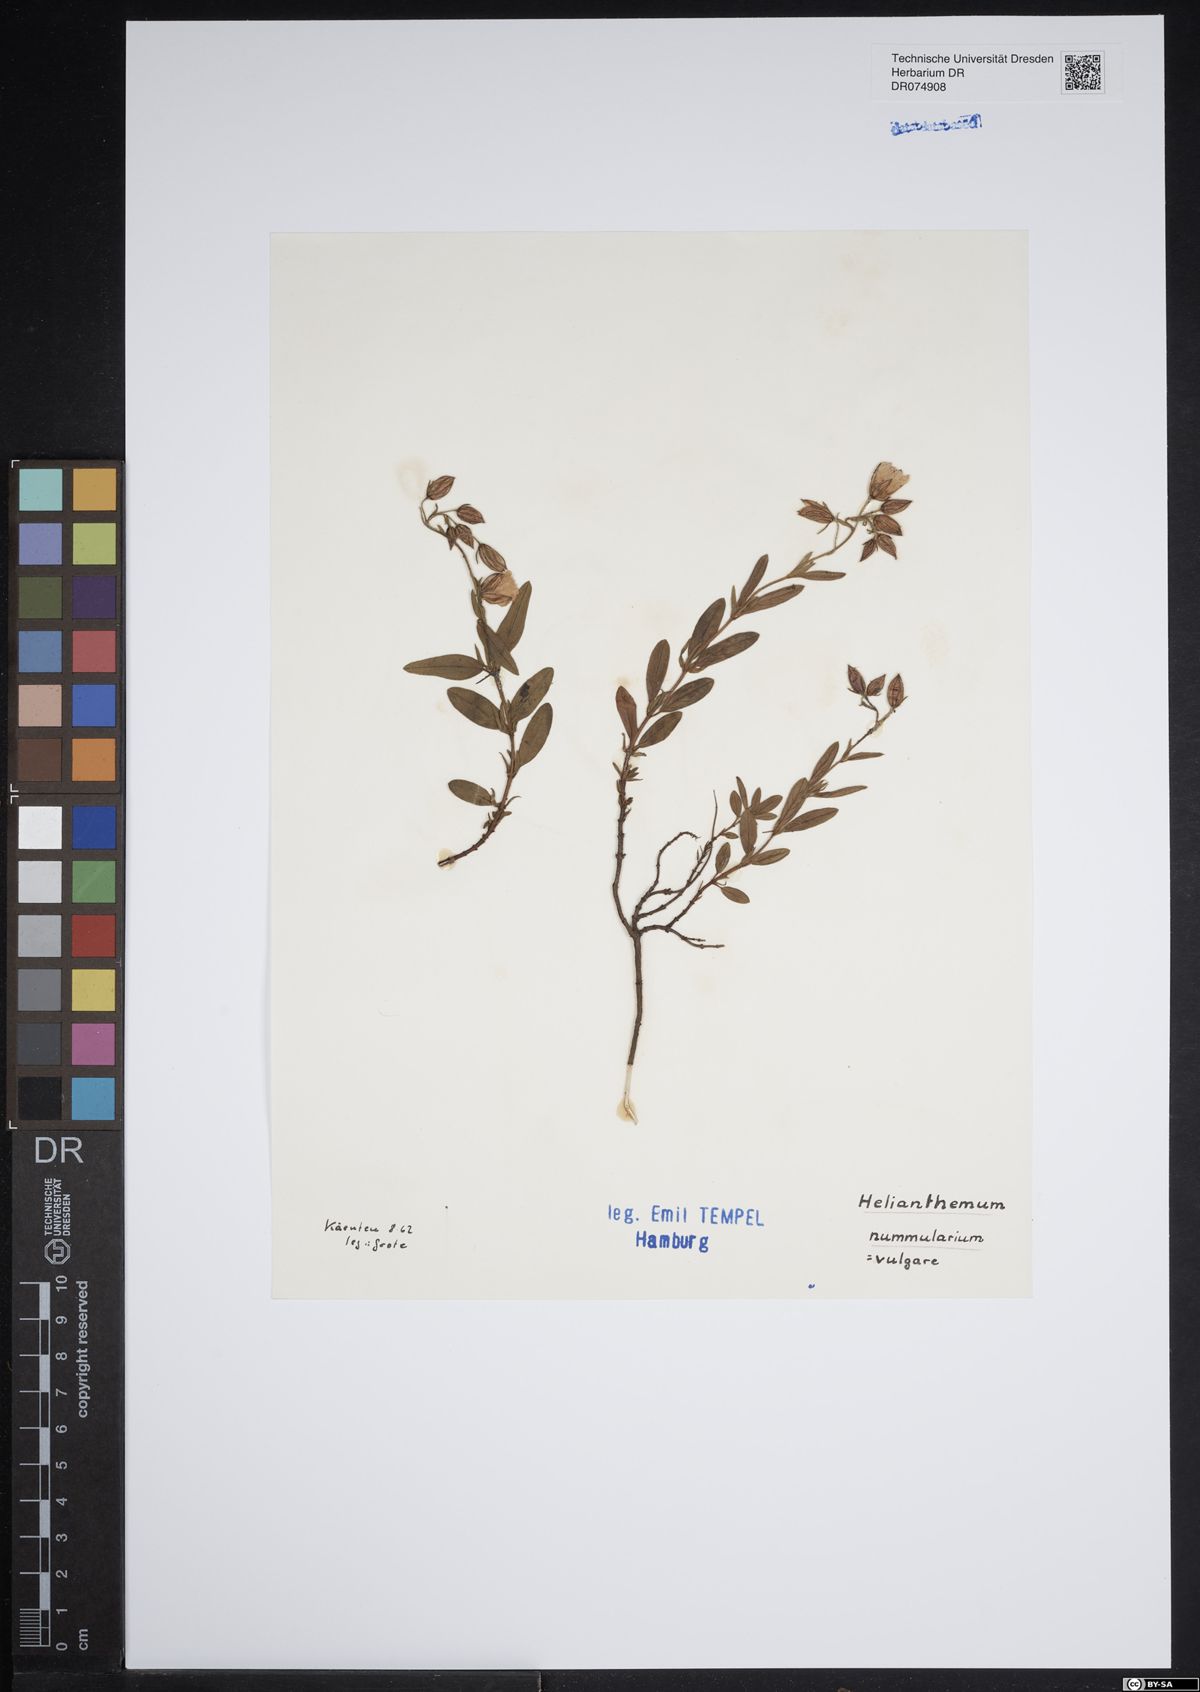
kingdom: Plantae
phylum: Tracheophyta
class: Magnoliopsida
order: Malvales
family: Cistaceae
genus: Helianthemum
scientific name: Helianthemum nummularium
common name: Common rock-rose
